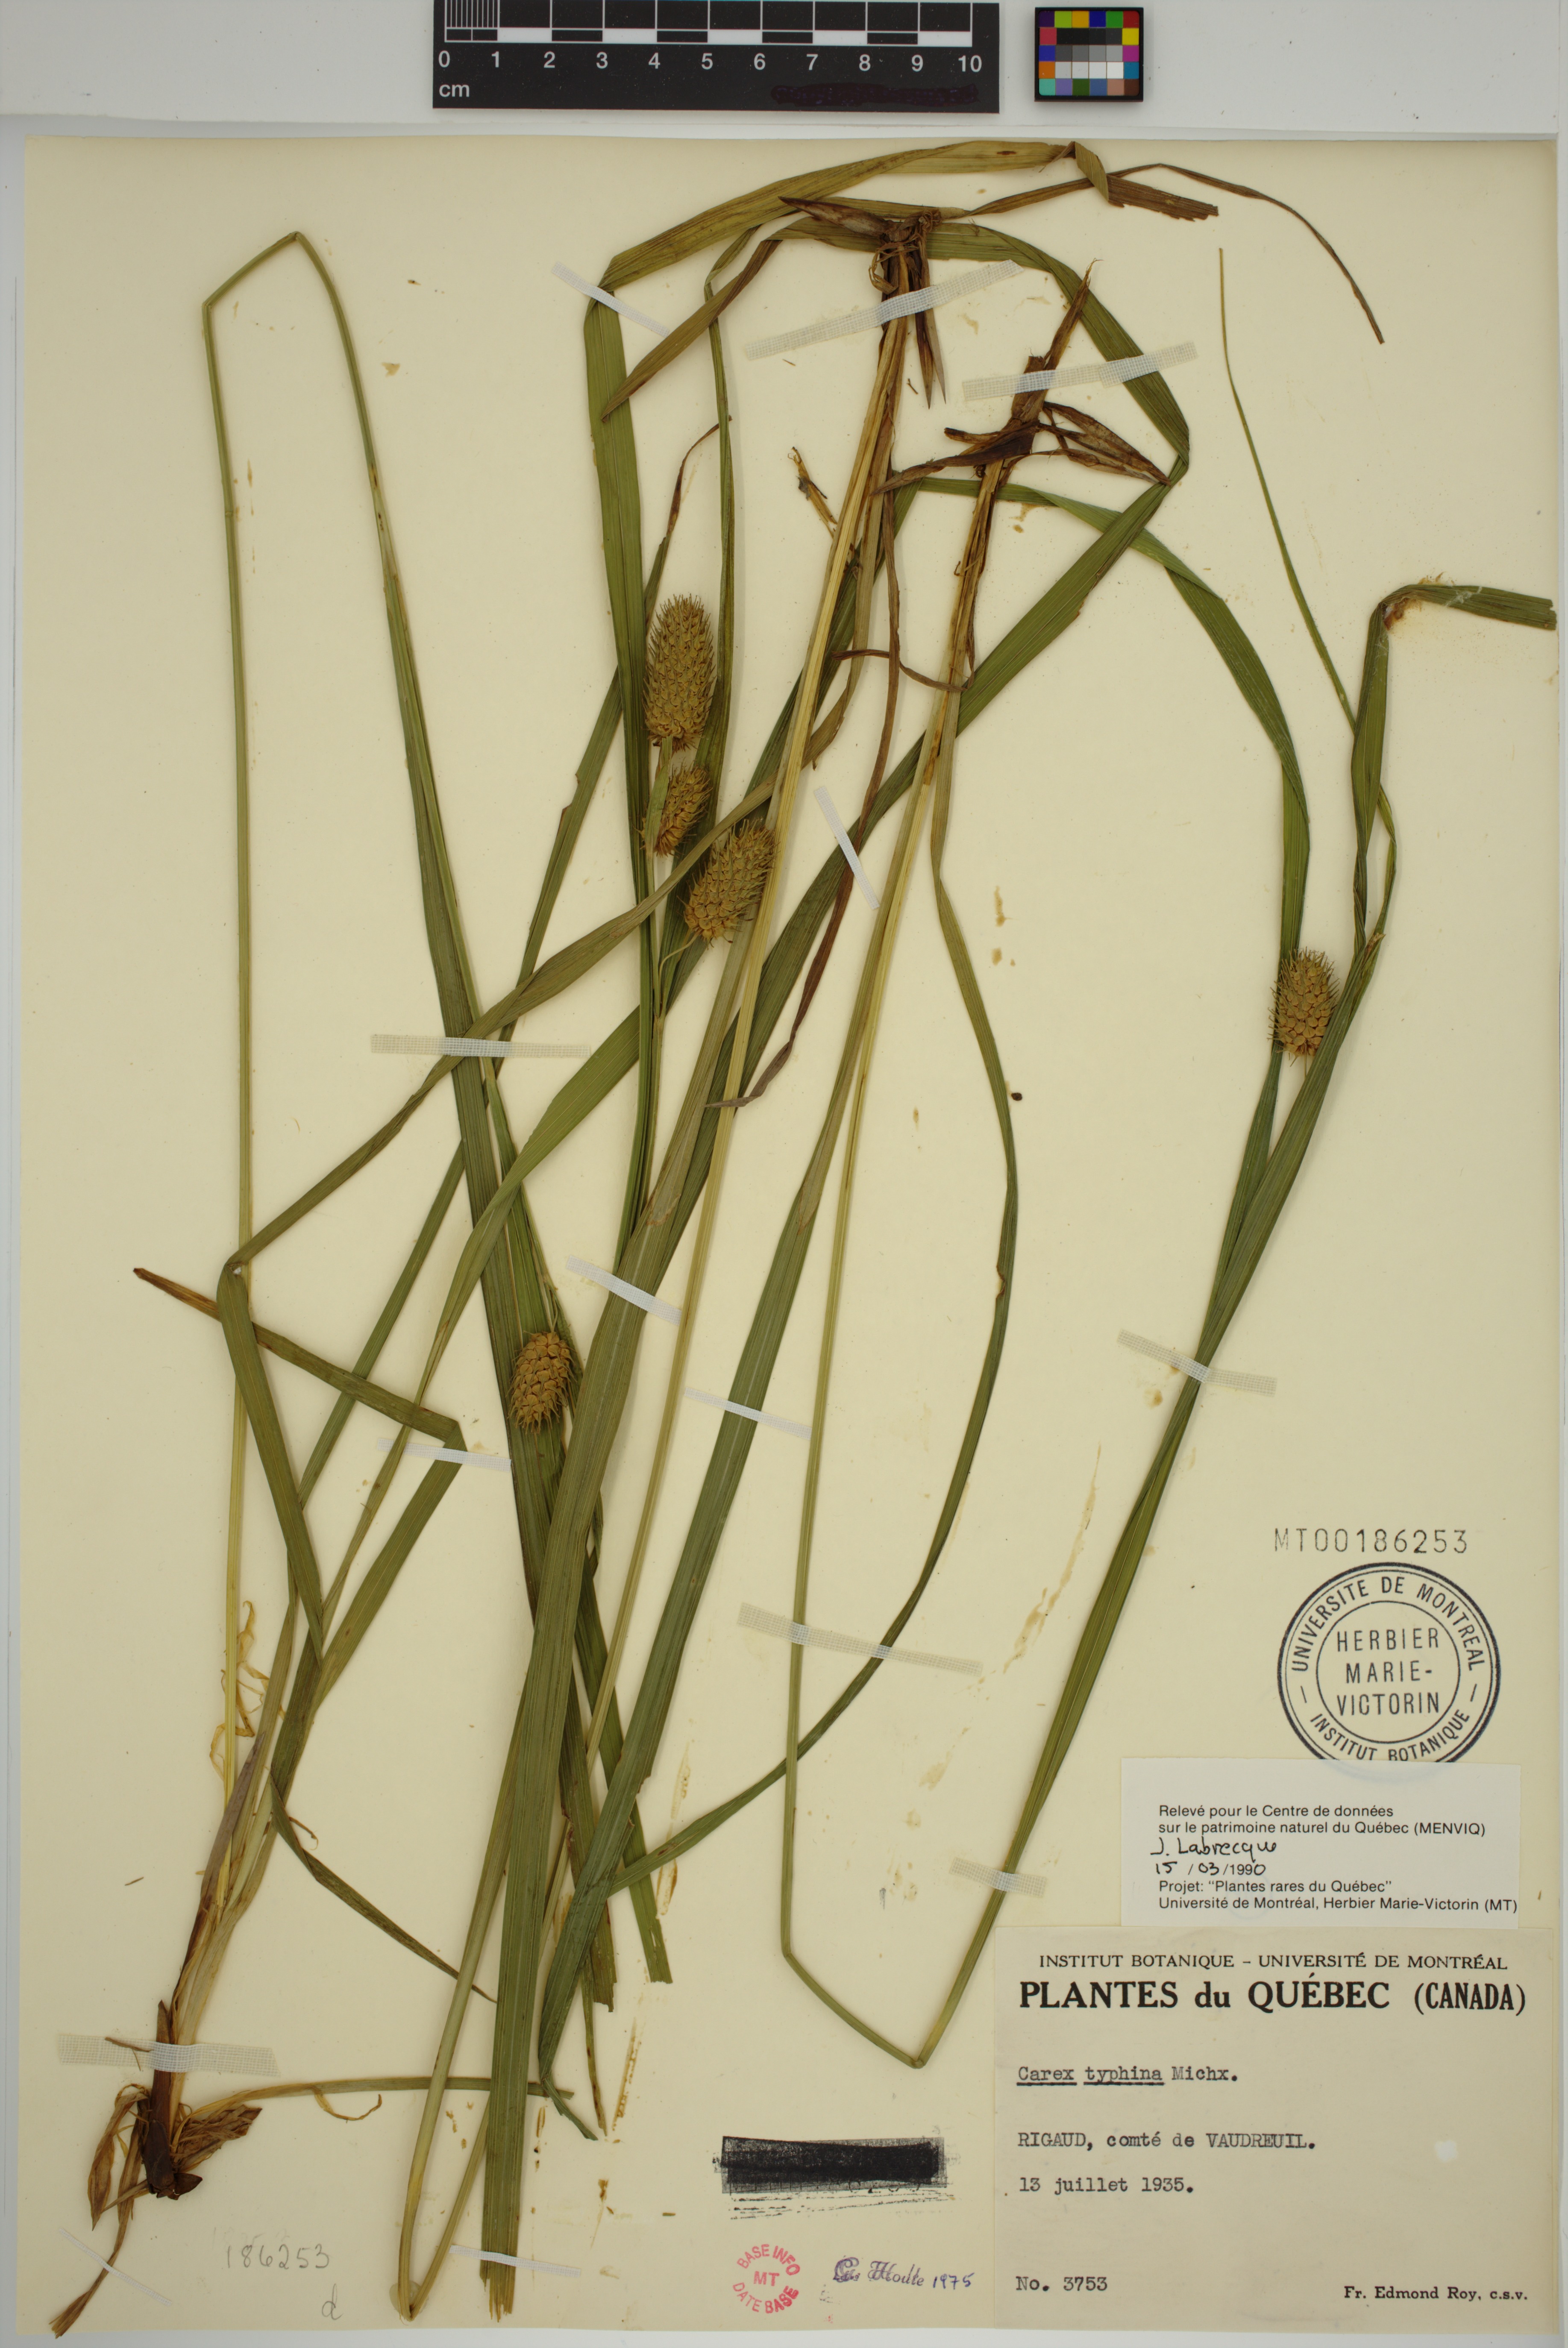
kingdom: Plantae
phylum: Tracheophyta
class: Liliopsida
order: Poales
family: Cyperaceae
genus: Carex
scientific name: Carex typhina
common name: Cattail sedge
